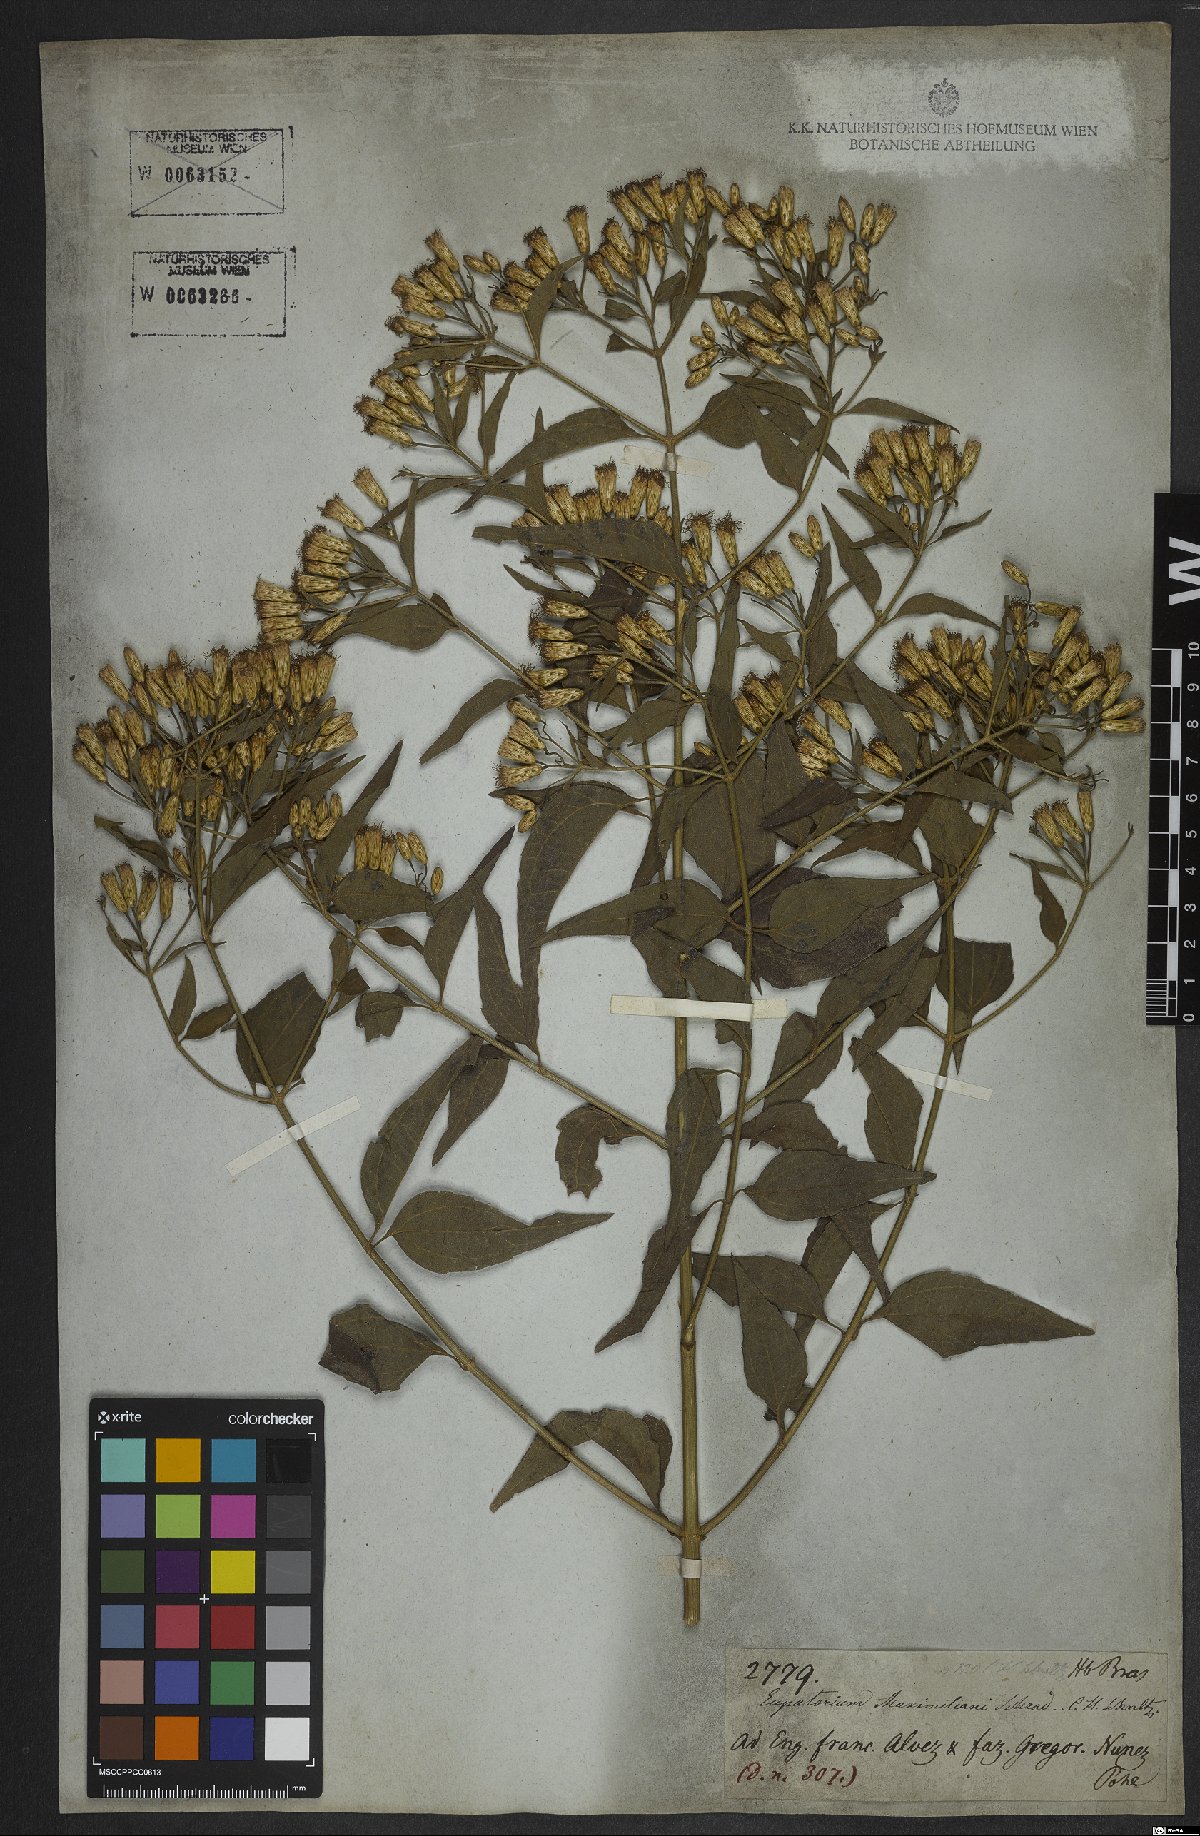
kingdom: Plantae
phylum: Tracheophyta
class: Magnoliopsida
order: Asterales
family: Asteraceae
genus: Chromolaena
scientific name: Chromolaena odorata
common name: Siamweed
